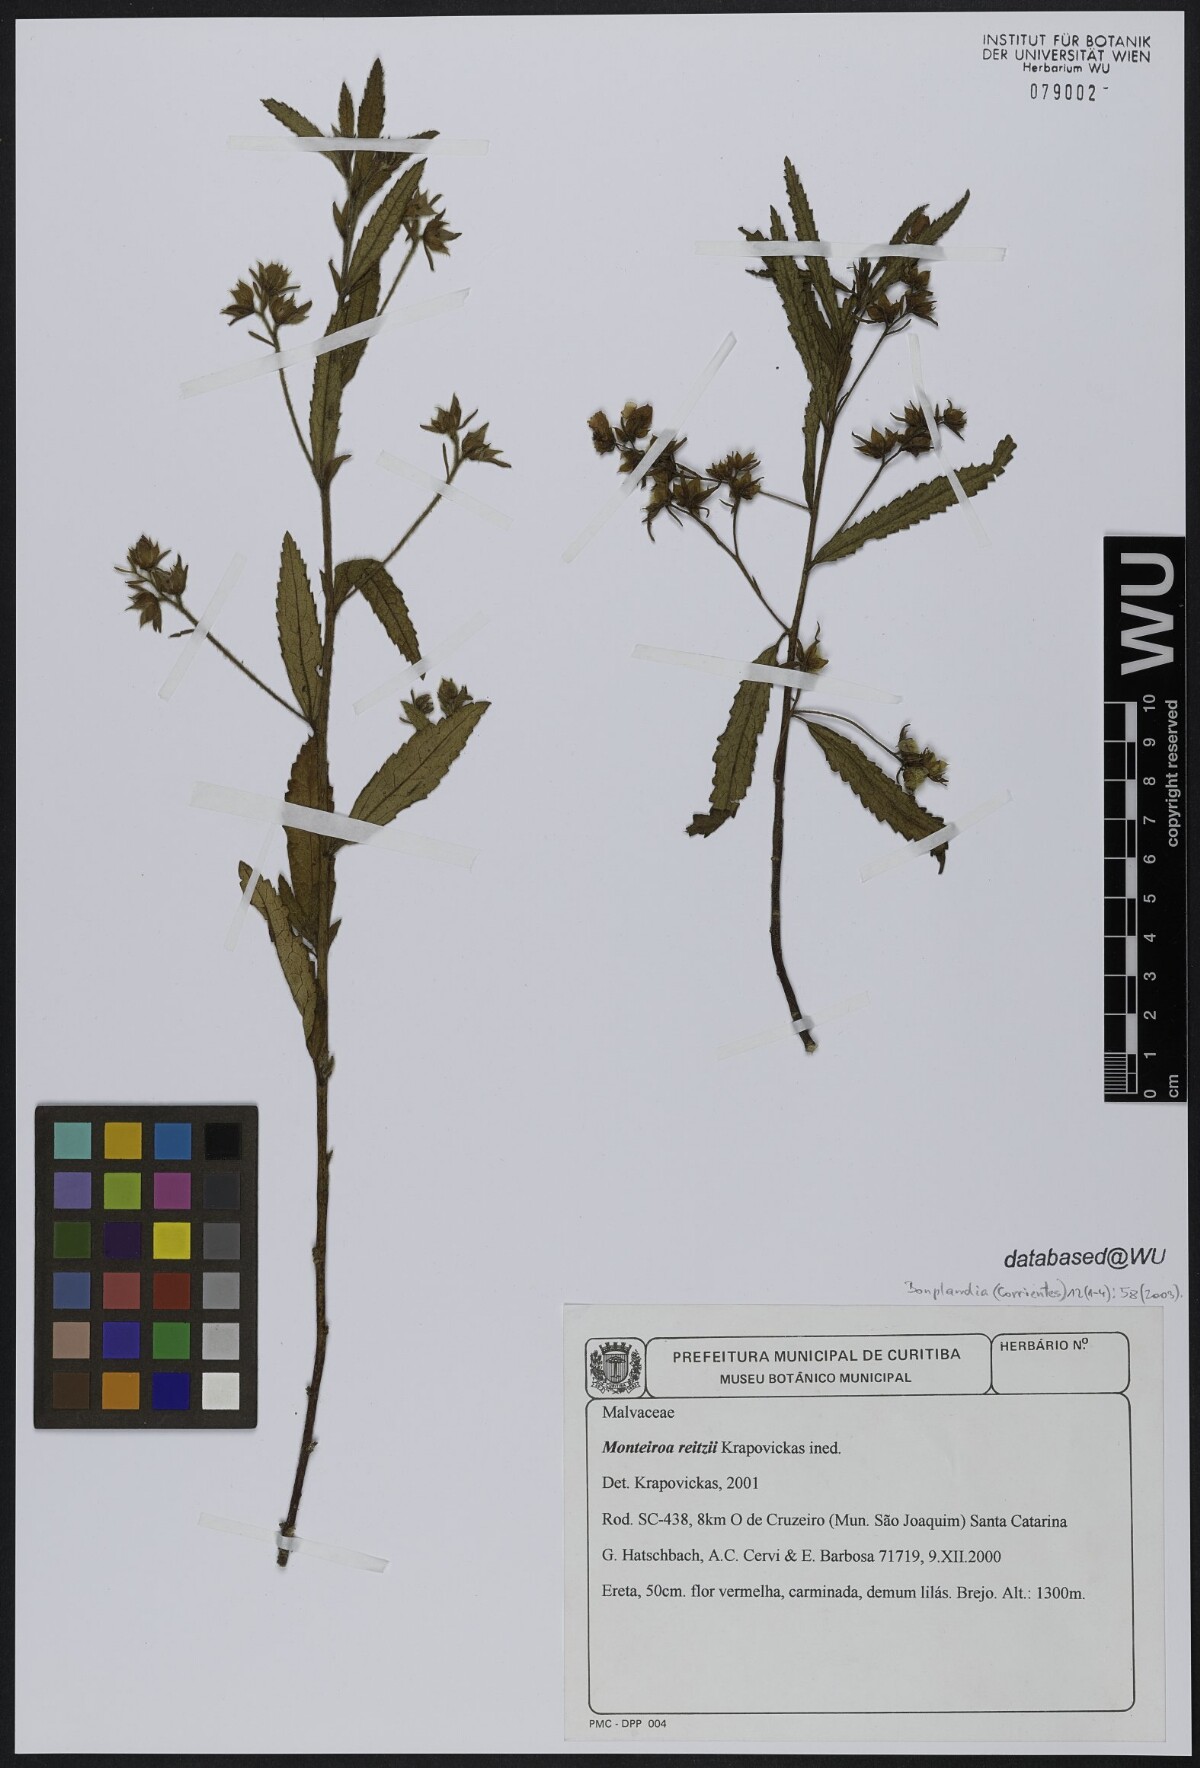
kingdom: Plantae
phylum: Tracheophyta
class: Magnoliopsida
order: Malvales
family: Malvaceae
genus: Monteiroa
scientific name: Monteiroa reitzii
